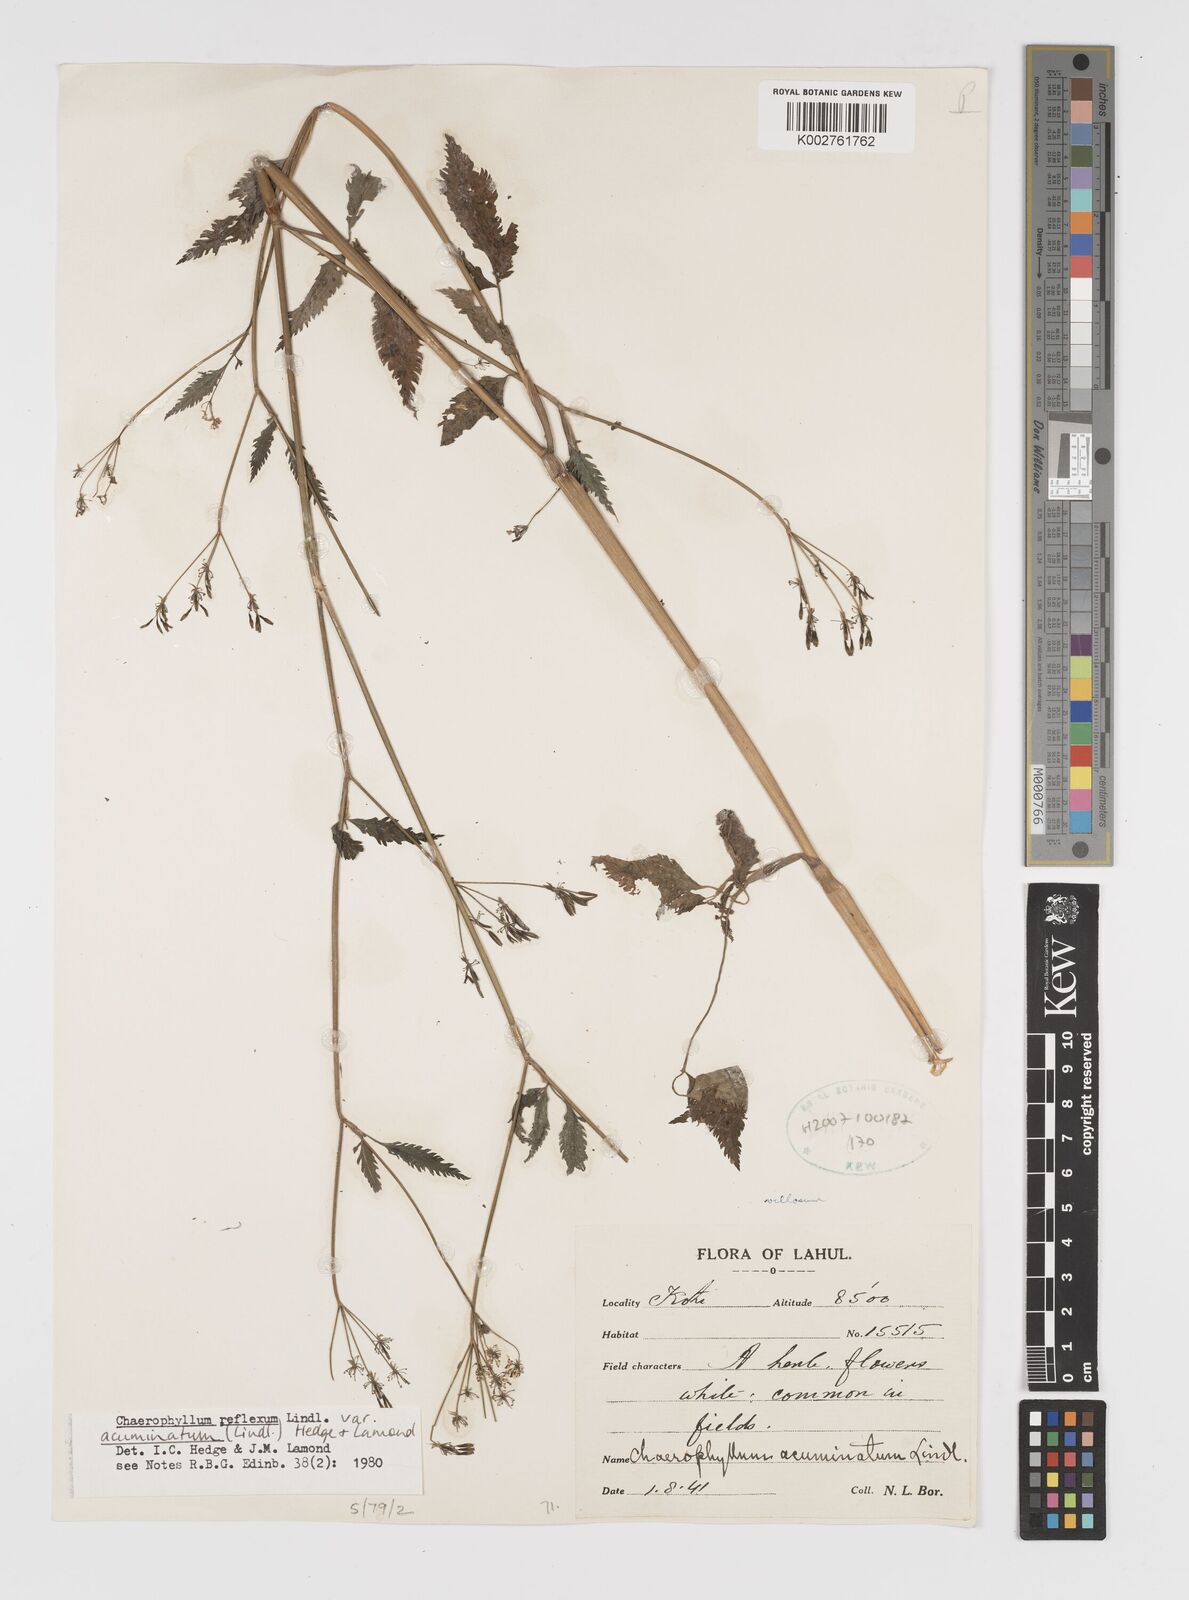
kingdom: Plantae
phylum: Tracheophyta
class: Magnoliopsida
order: Apiales
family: Apiaceae
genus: Chaerophyllum
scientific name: Chaerophyllum reflexum
